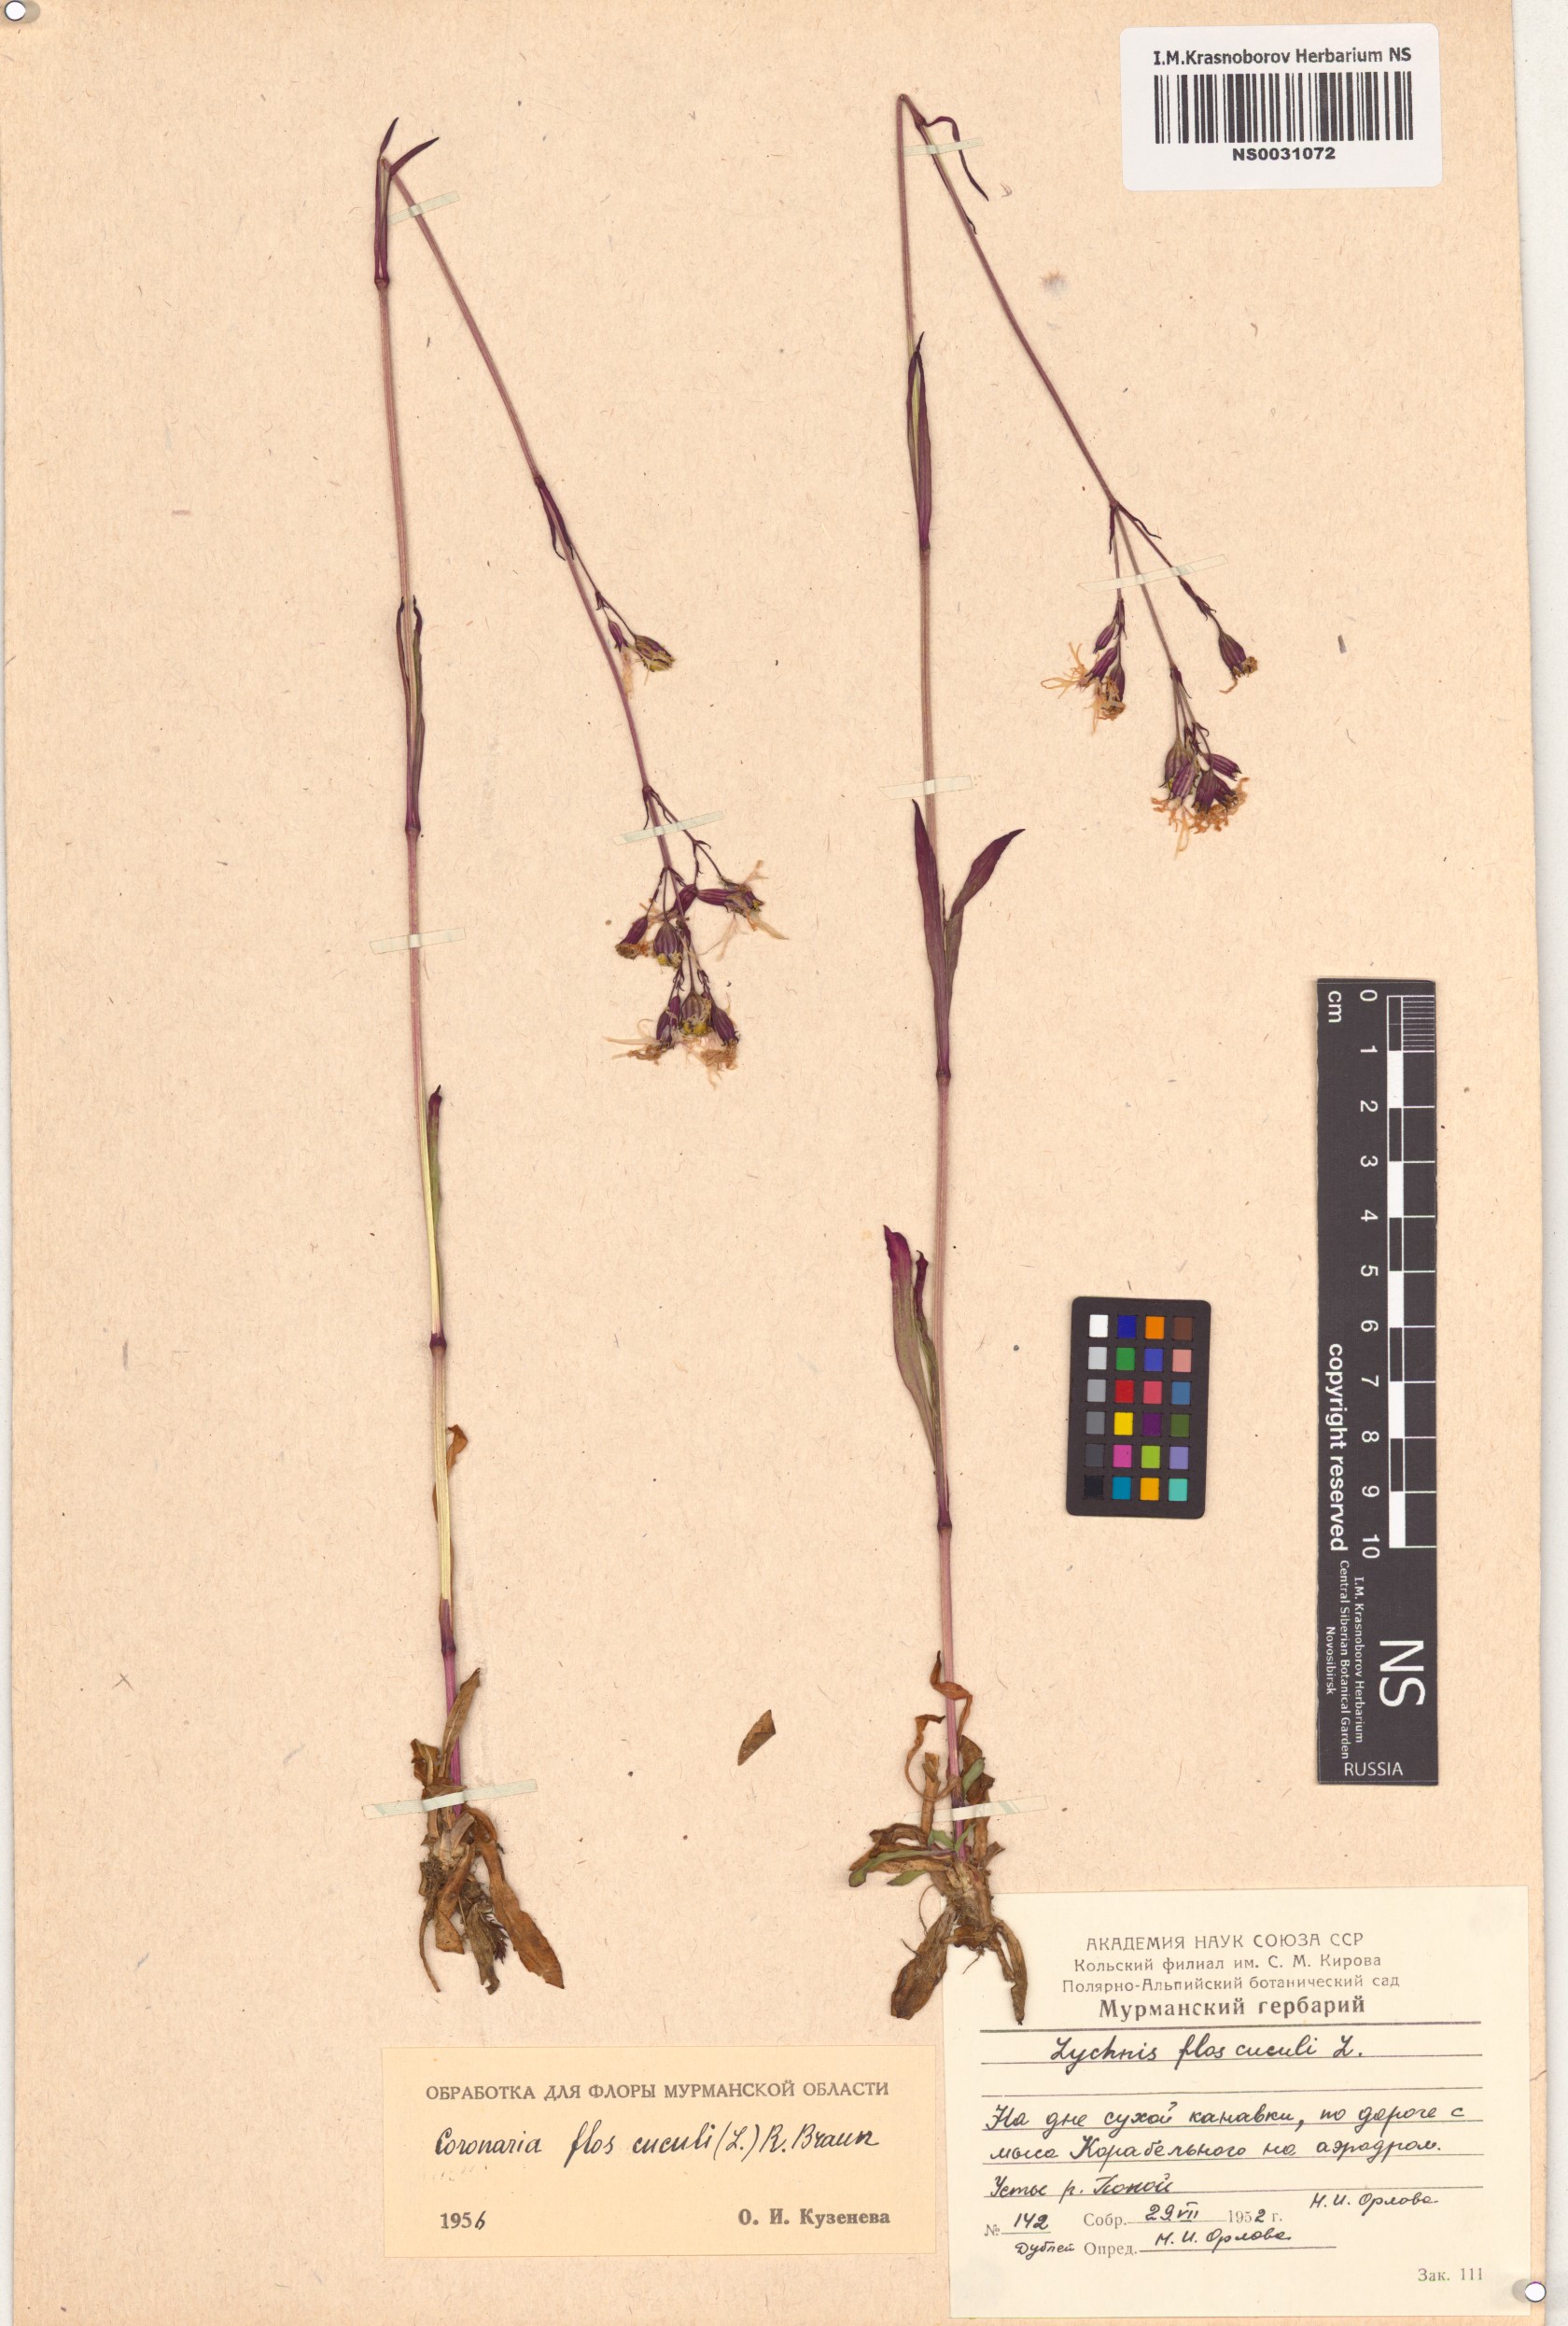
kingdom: Plantae
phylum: Tracheophyta
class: Magnoliopsida
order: Caryophyllales
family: Caryophyllaceae
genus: Silene
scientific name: Silene flos-cuculi
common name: Ragged-robin
